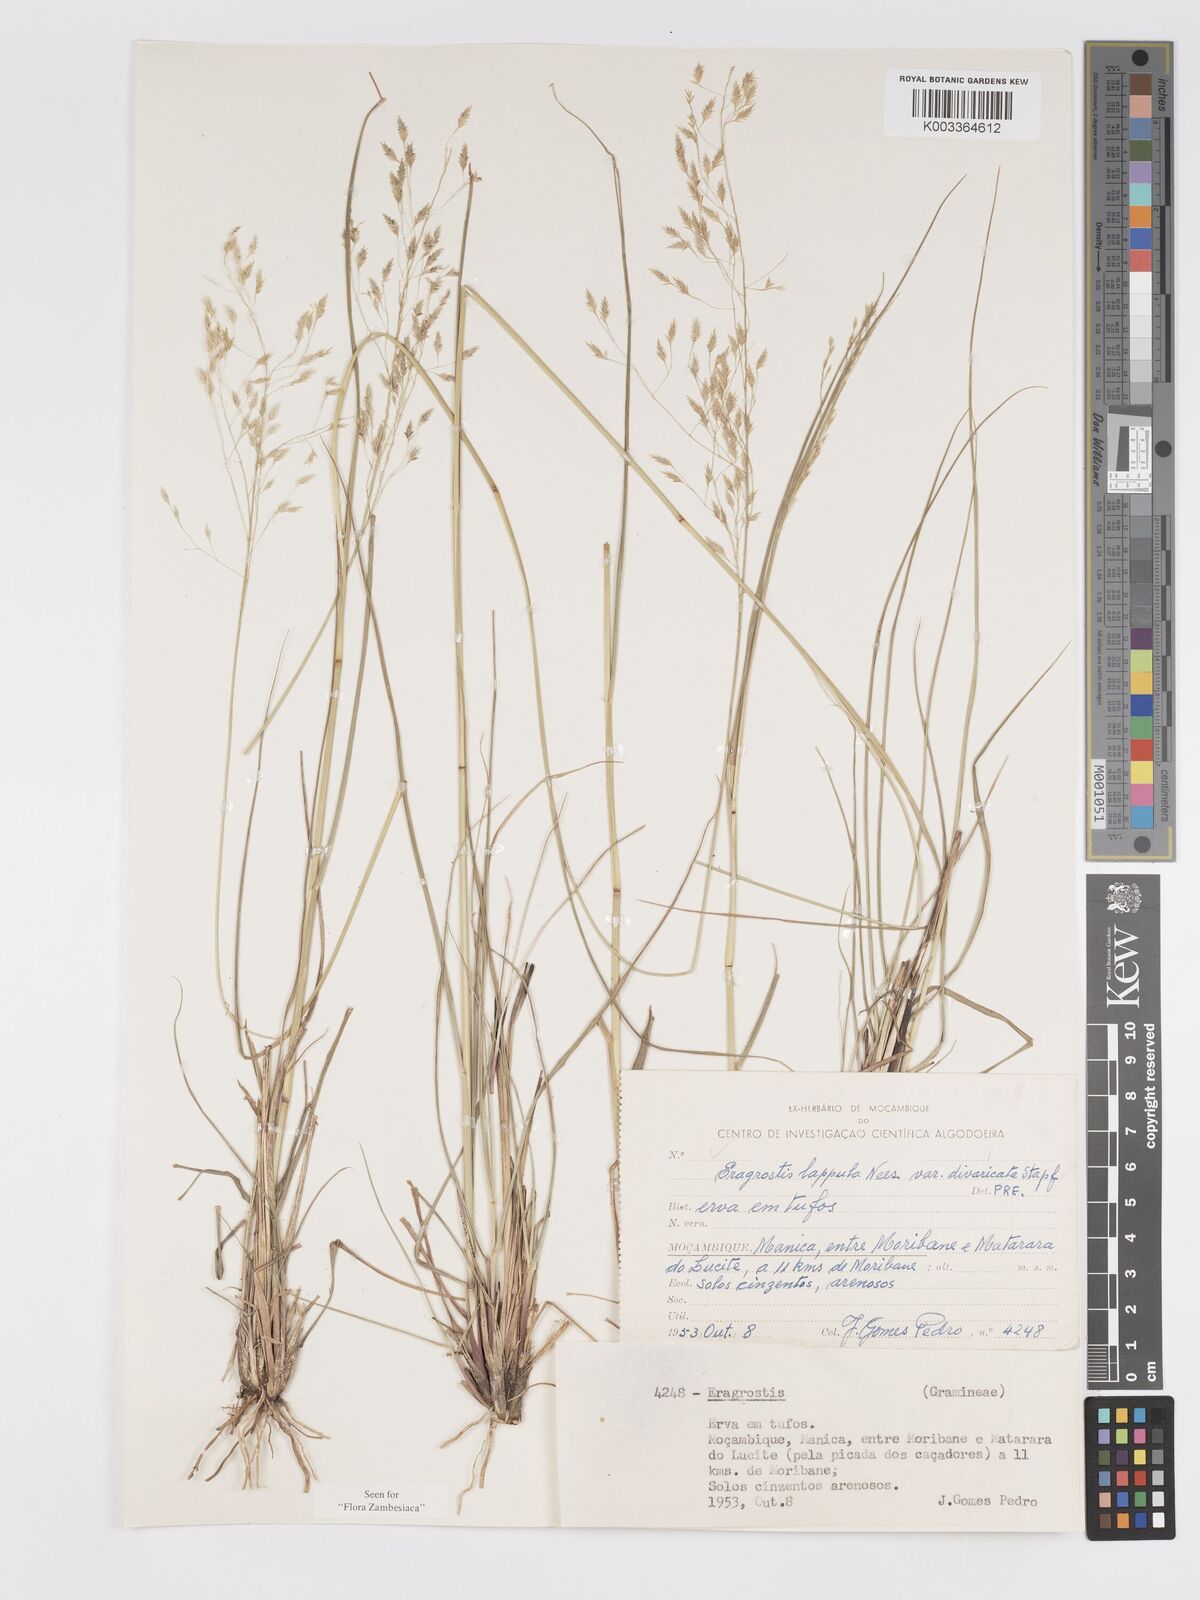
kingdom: Plantae
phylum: Tracheophyta
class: Liliopsida
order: Poales
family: Poaceae
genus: Eragrostis
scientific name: Eragrostis lappula
